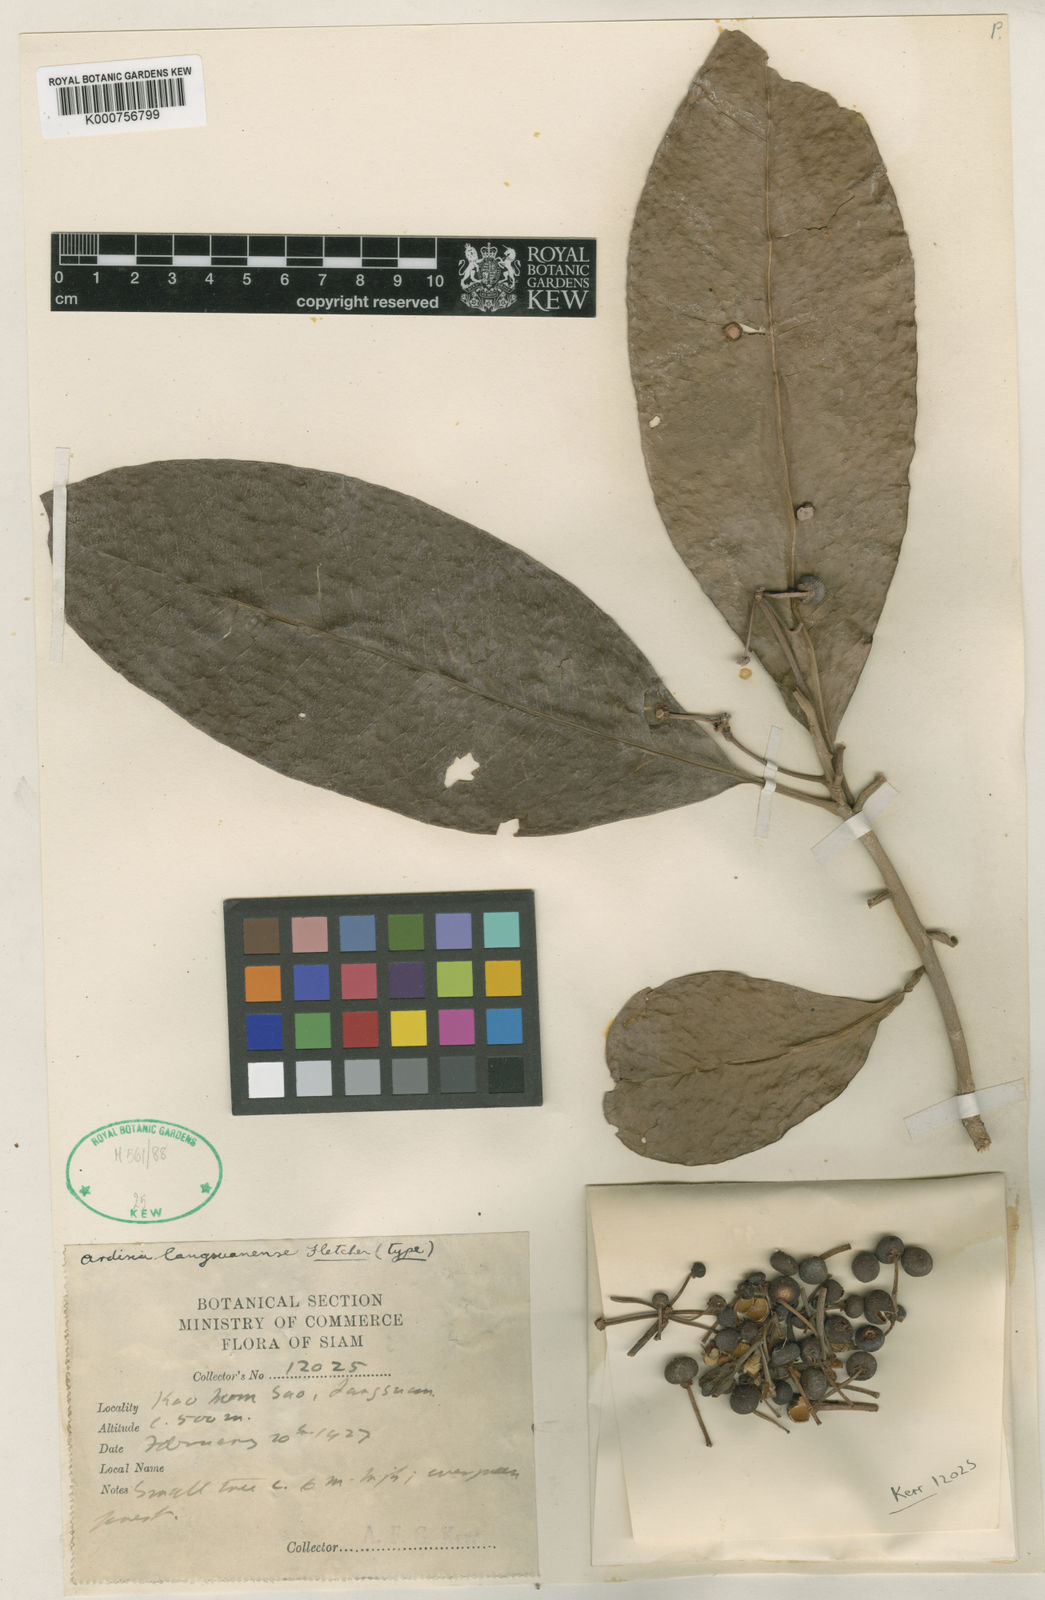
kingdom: Plantae
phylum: Tracheophyta
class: Magnoliopsida
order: Ericales
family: Primulaceae
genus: Ardisia
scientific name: Ardisia oxyphylla
